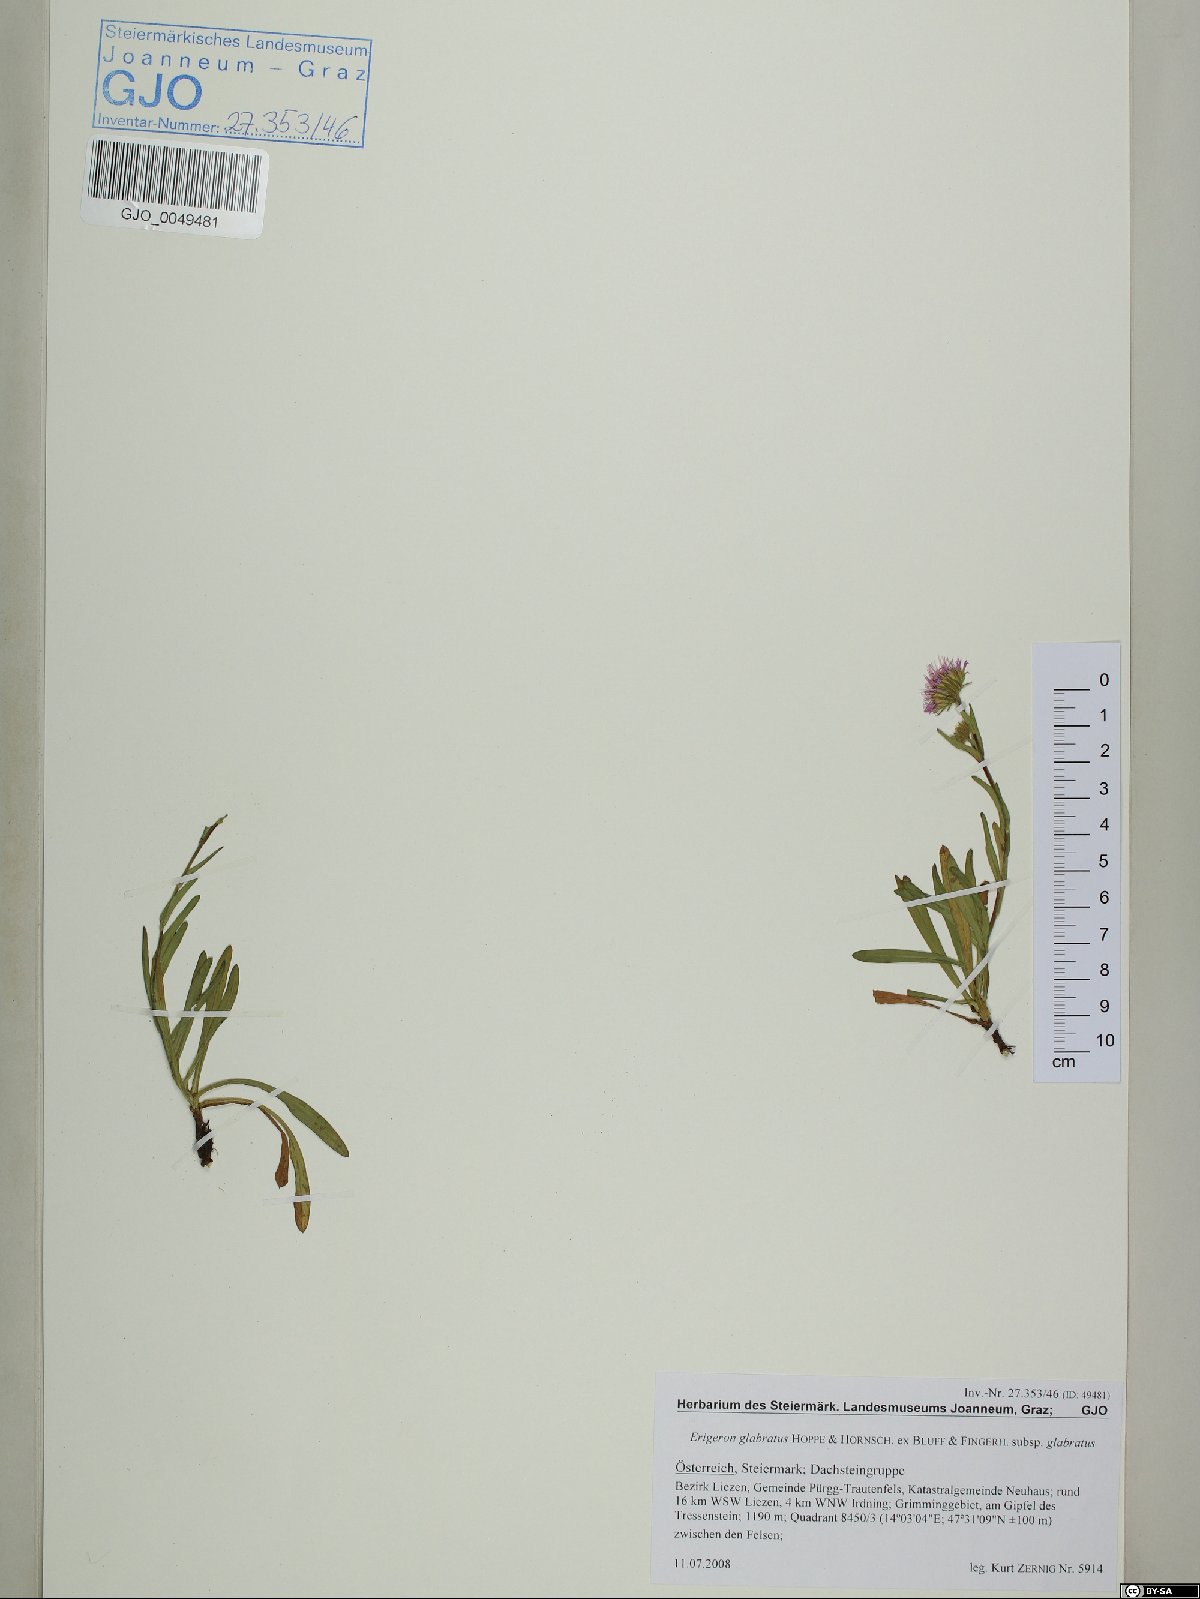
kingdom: Plantae
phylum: Tracheophyta
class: Magnoliopsida
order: Asterales
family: Asteraceae
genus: Erigeron
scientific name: Erigeron glabratus
